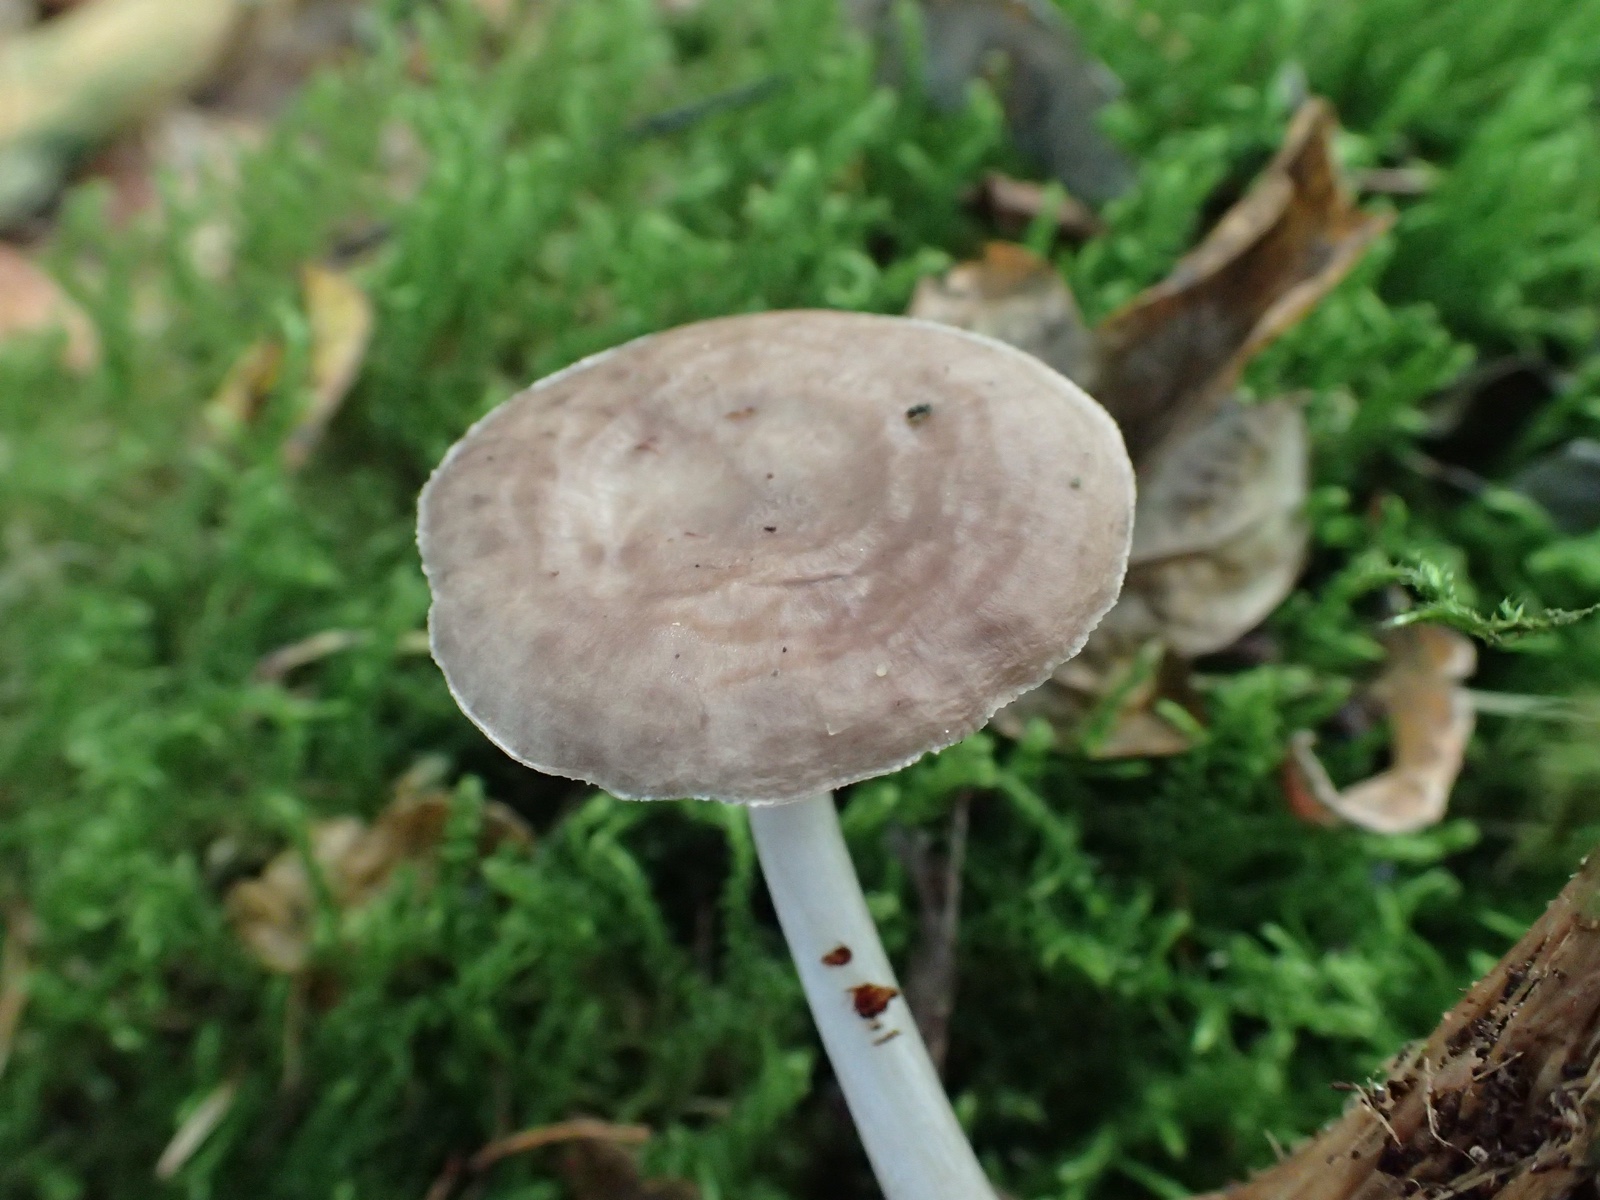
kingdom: Fungi
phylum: Basidiomycota
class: Agaricomycetes
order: Agaricales
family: Pluteaceae
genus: Pluteus
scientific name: Pluteus
